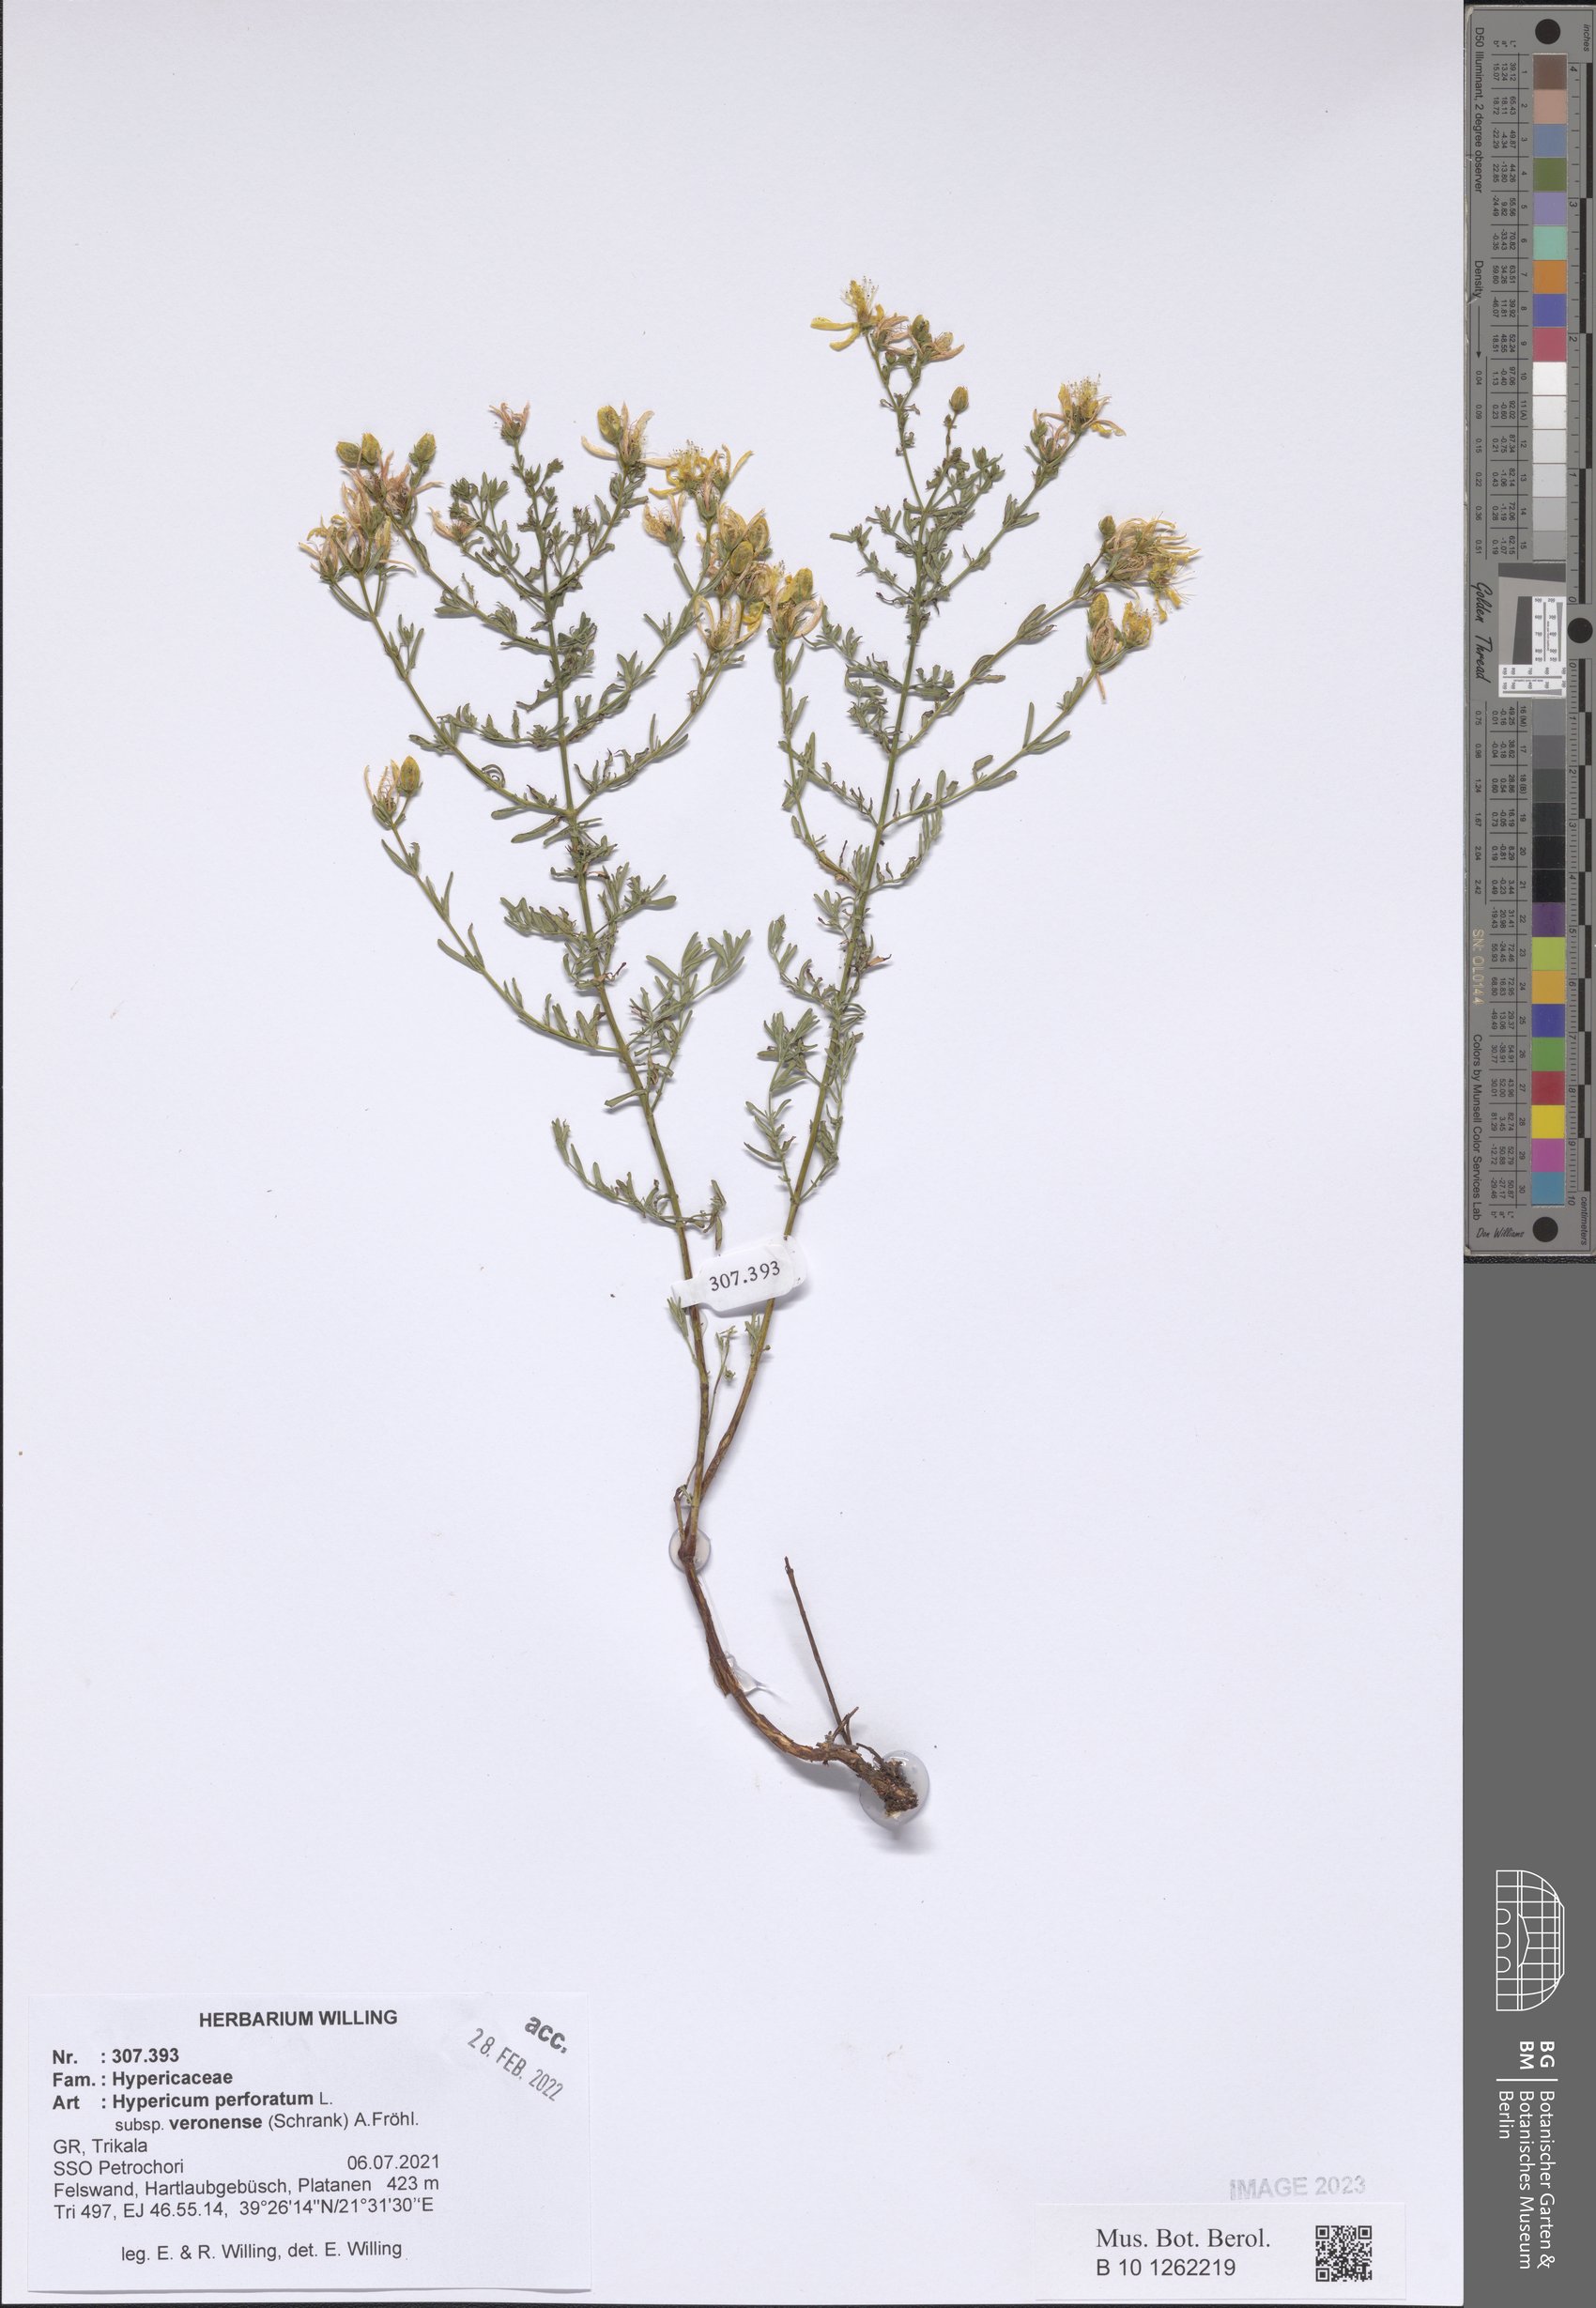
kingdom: Plantae
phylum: Tracheophyta
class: Magnoliopsida
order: Malpighiales
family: Hypericaceae
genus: Hypericum
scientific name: Hypericum veronense
